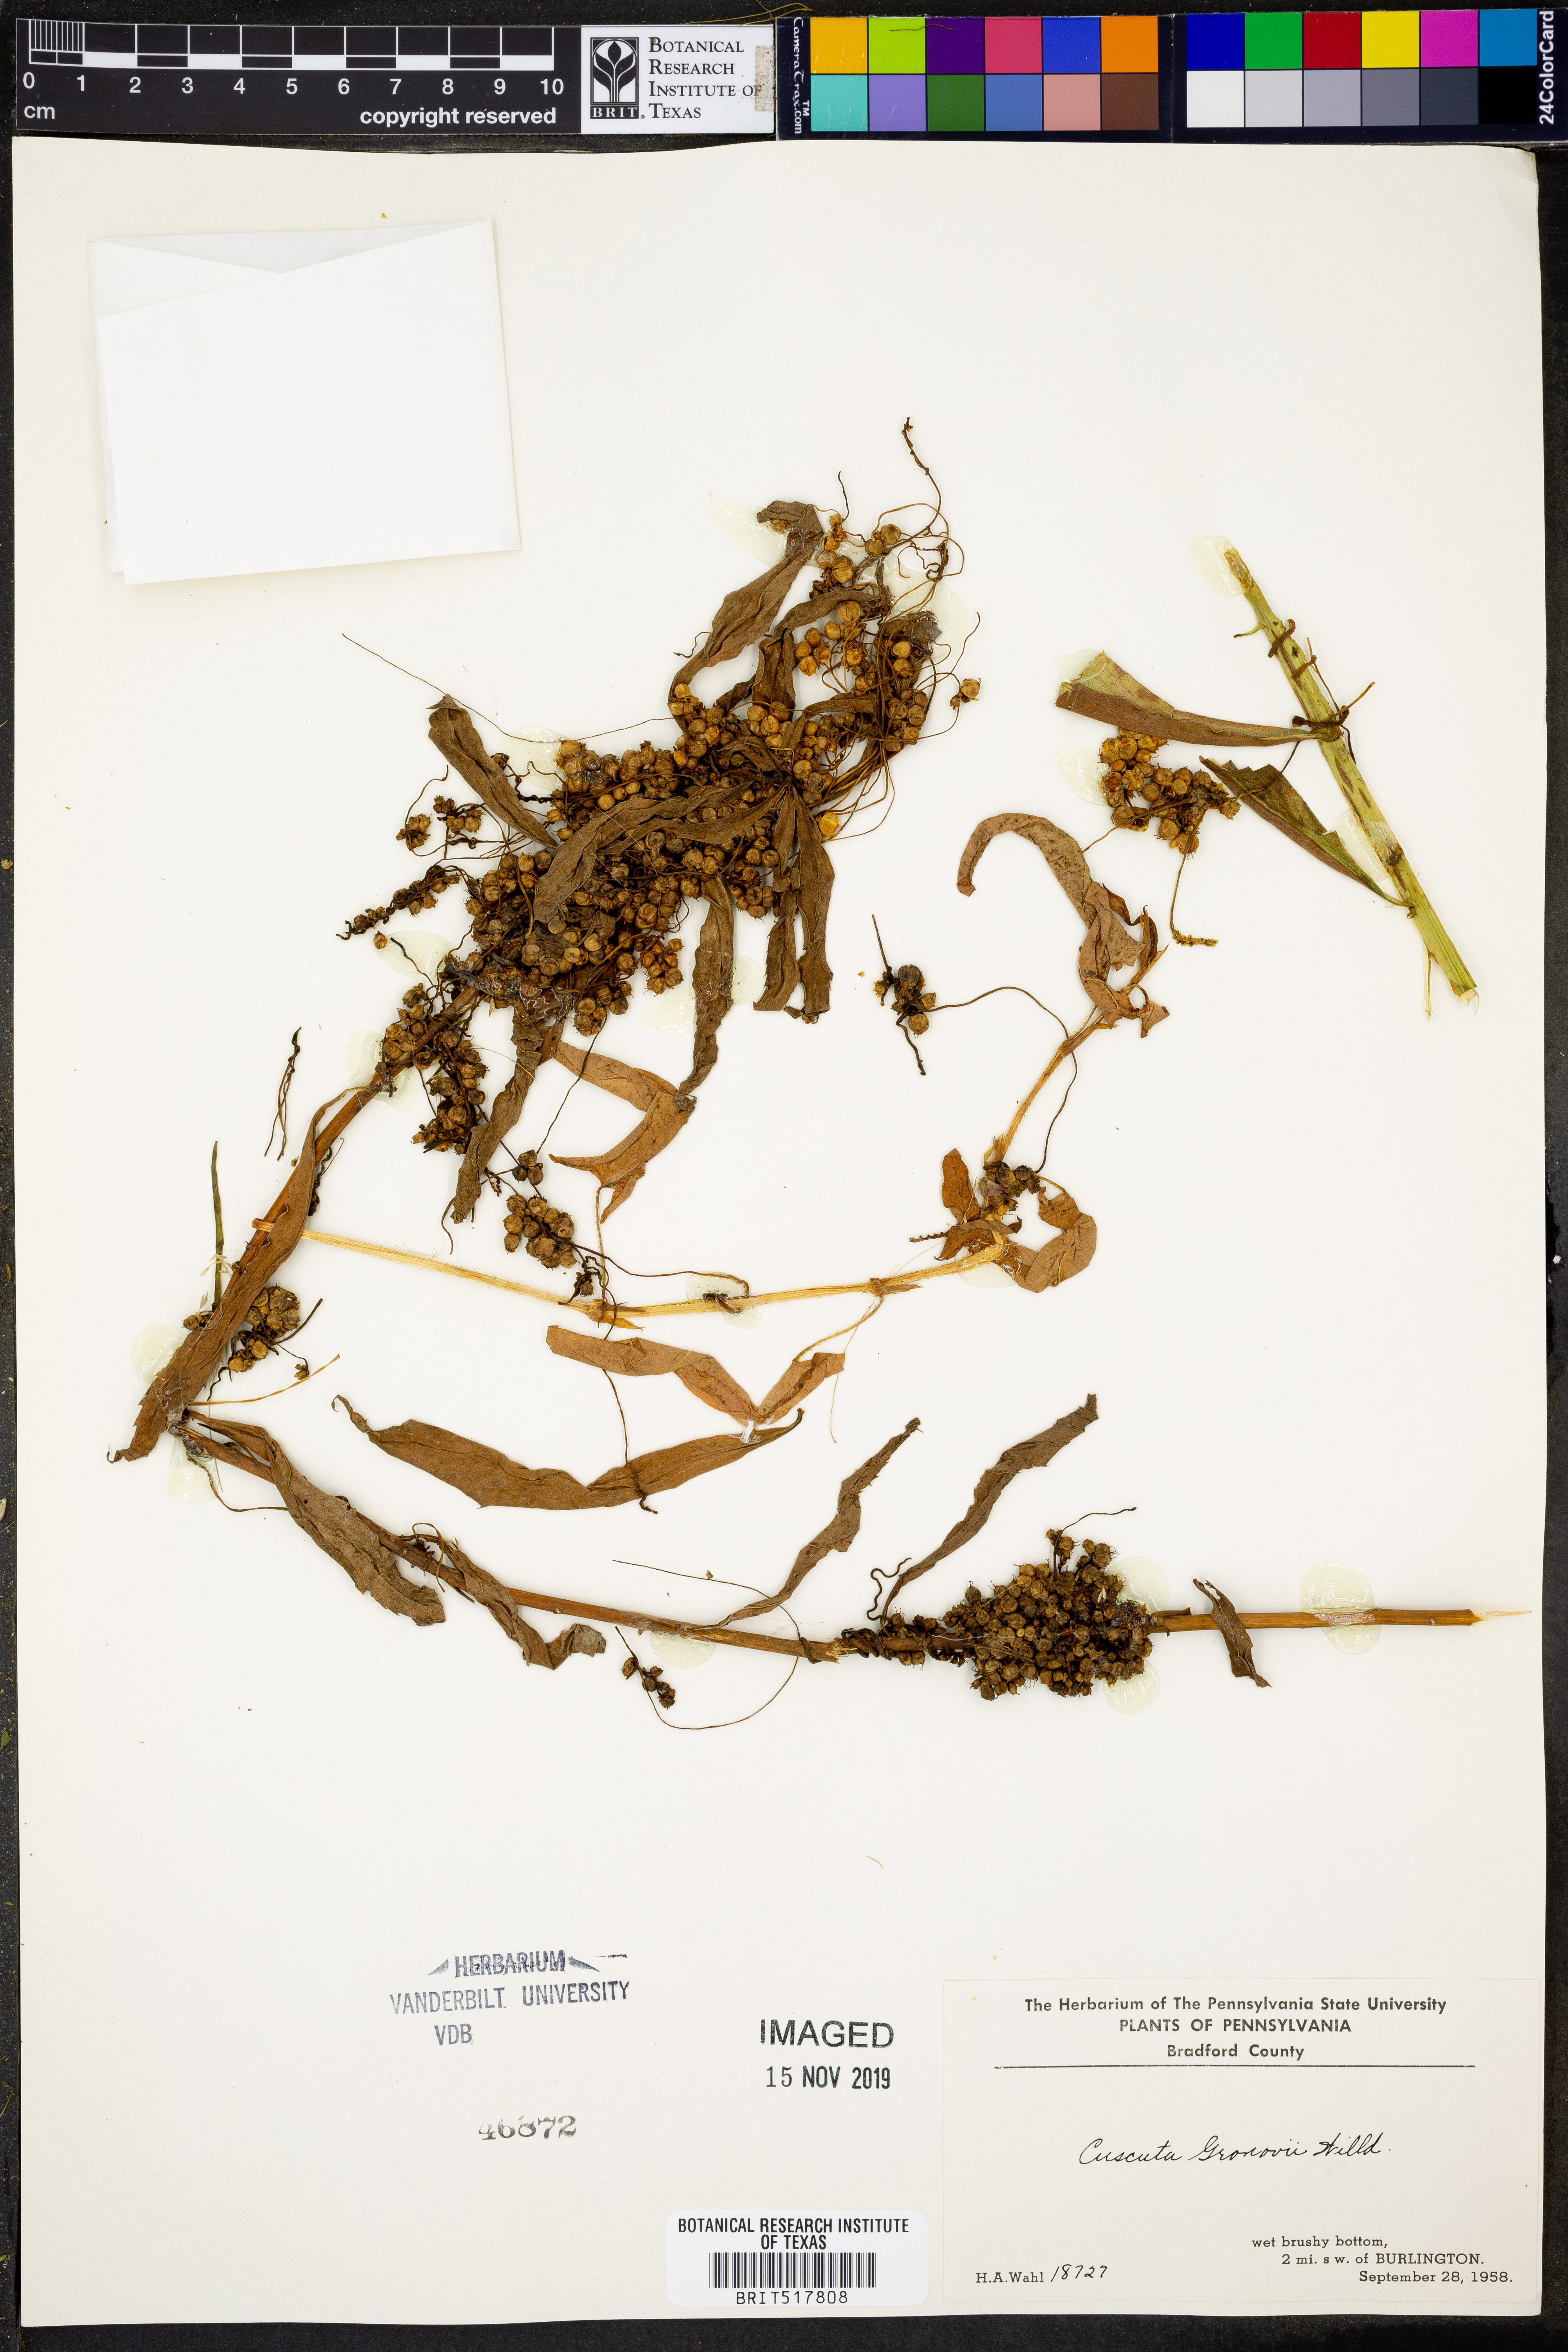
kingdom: Plantae
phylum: Tracheophyta
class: Magnoliopsida
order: Solanales
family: Convolvulaceae
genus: Cuscuta
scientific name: Cuscuta gronovii
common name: Common dodder
